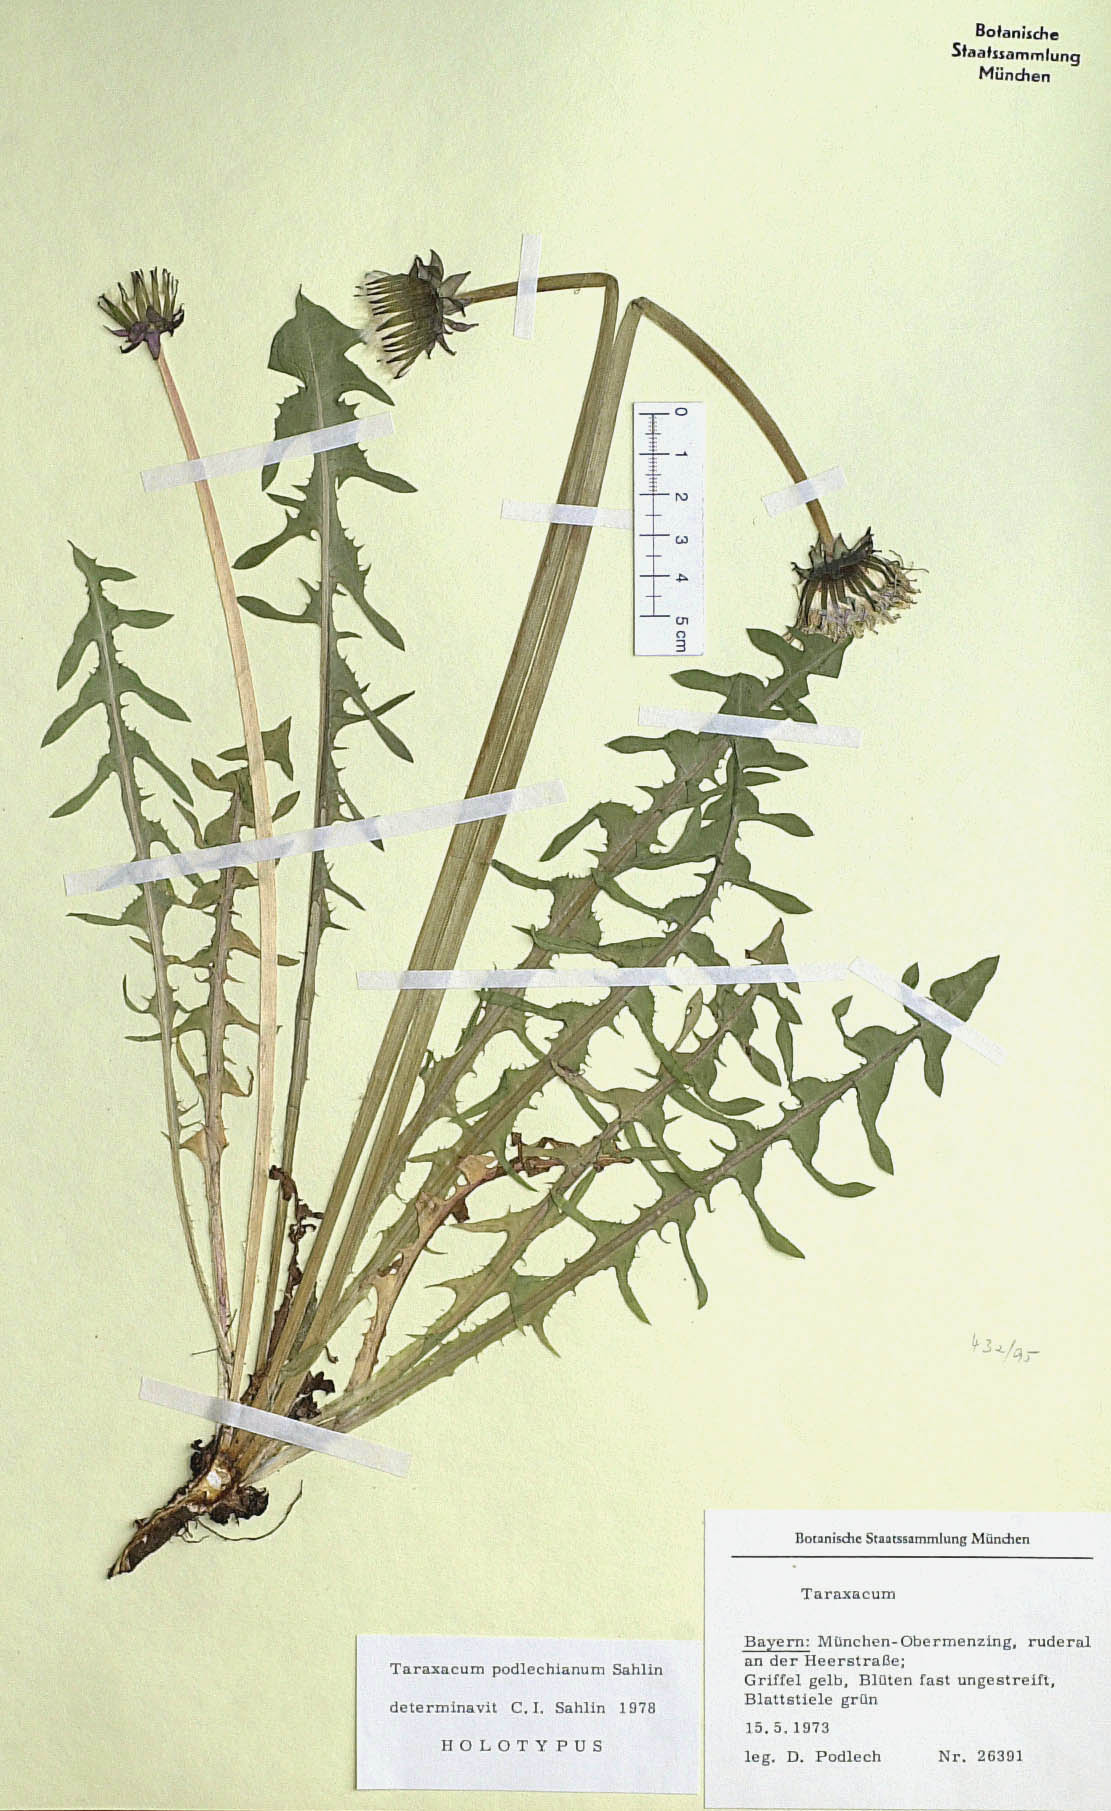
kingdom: Plantae
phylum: Tracheophyta
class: Magnoliopsida
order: Asterales
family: Asteraceae
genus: Taraxacum
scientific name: Taraxacum podlechianum
